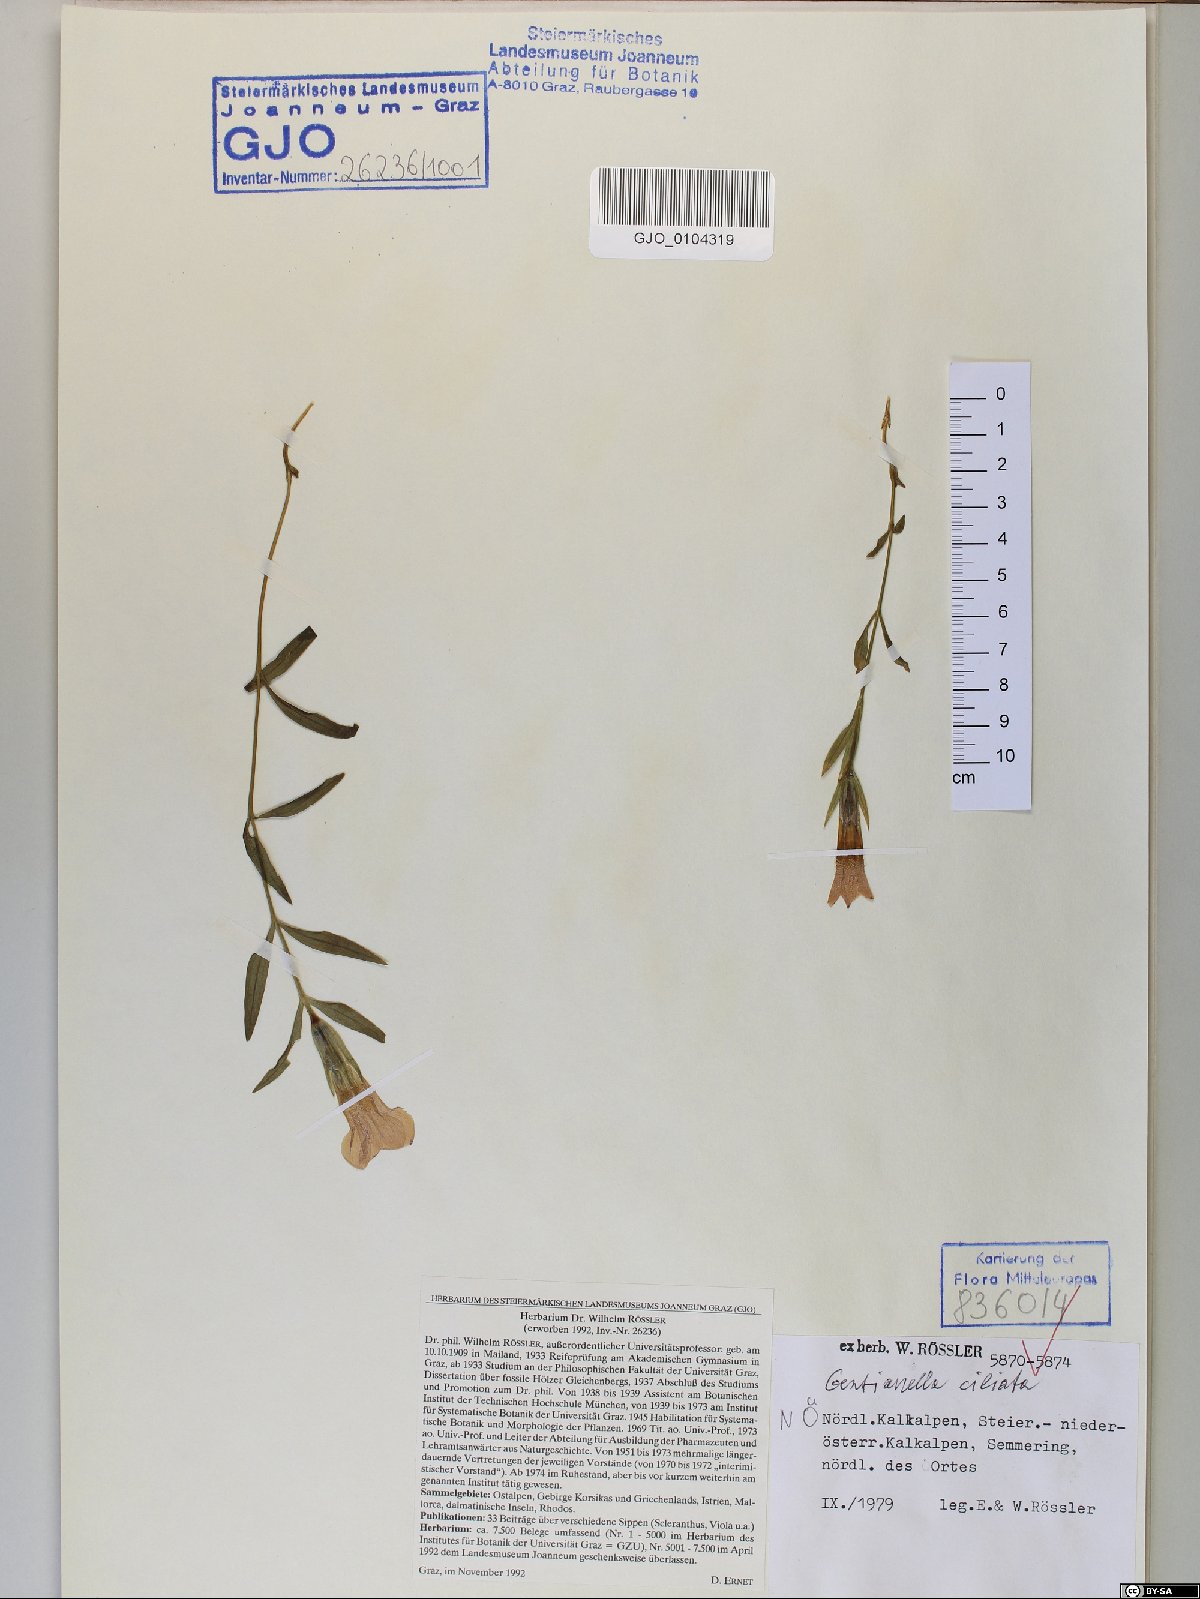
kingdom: Plantae
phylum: Tracheophyta
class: Magnoliopsida
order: Gentianales
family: Gentianaceae
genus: Gentianopsis
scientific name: Gentianopsis ciliata
